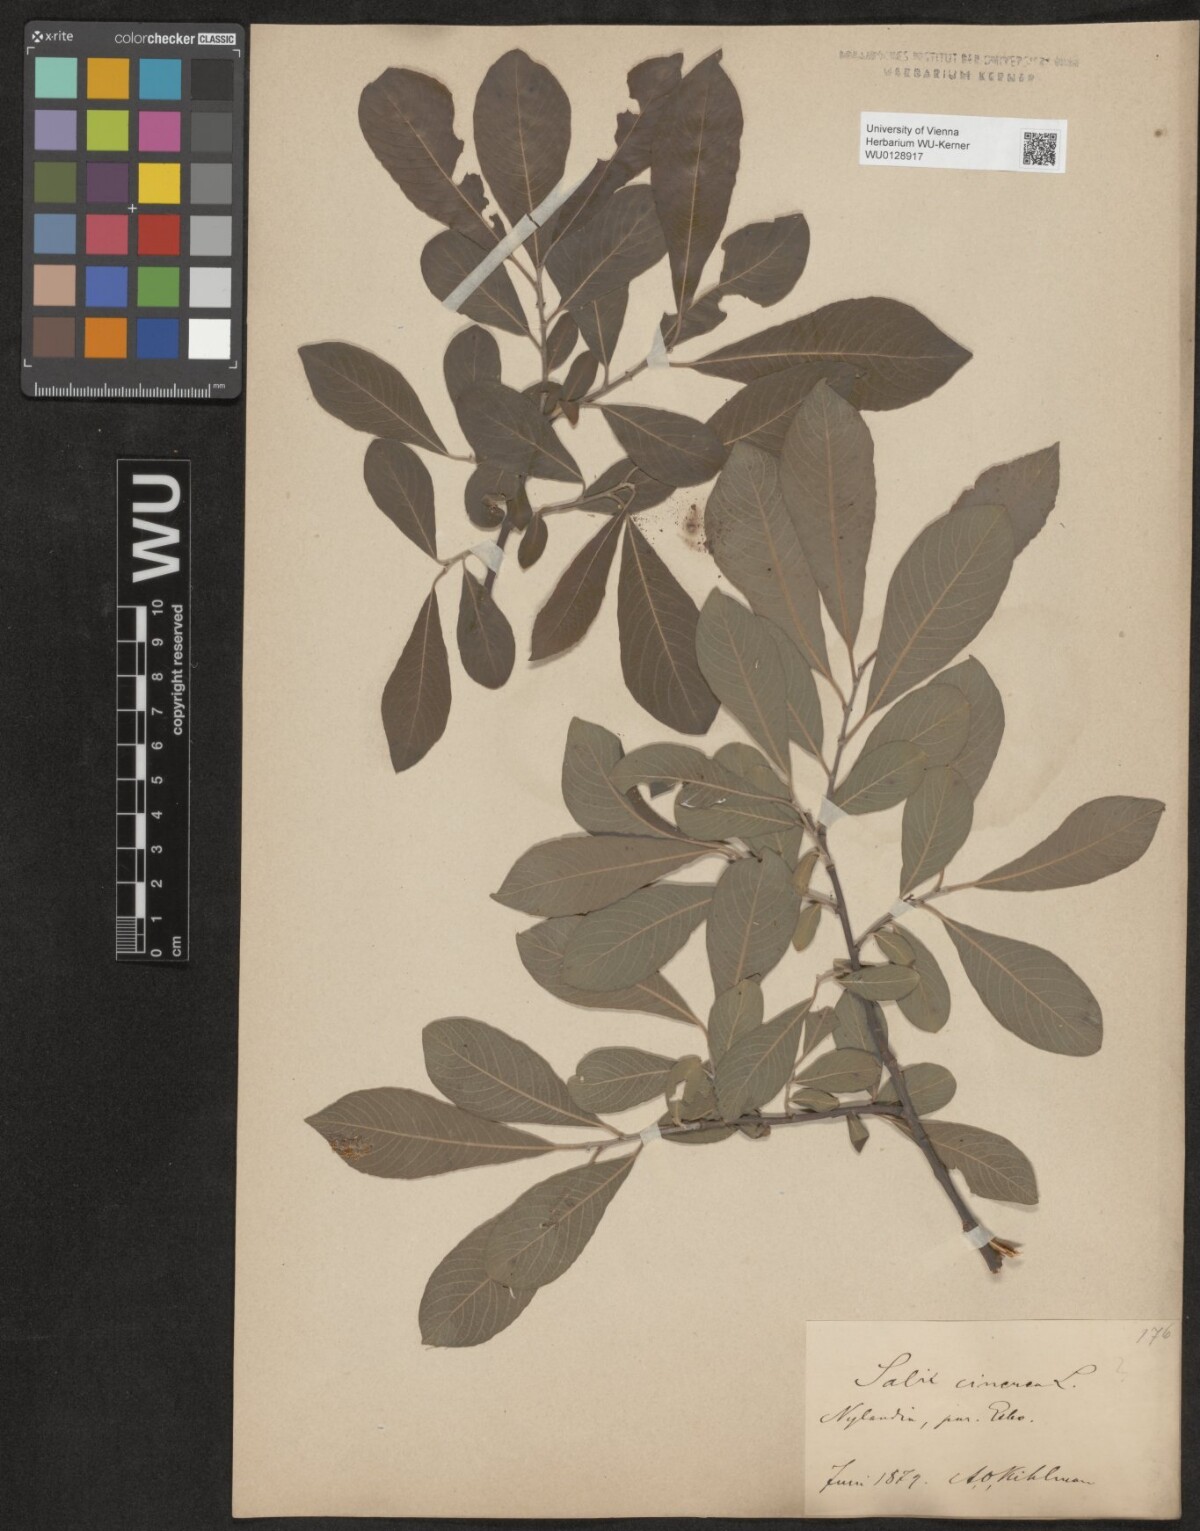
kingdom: Plantae
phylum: Tracheophyta
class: Magnoliopsida
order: Malpighiales
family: Salicaceae
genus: Salix
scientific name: Salix cinerea
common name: Common sallow
